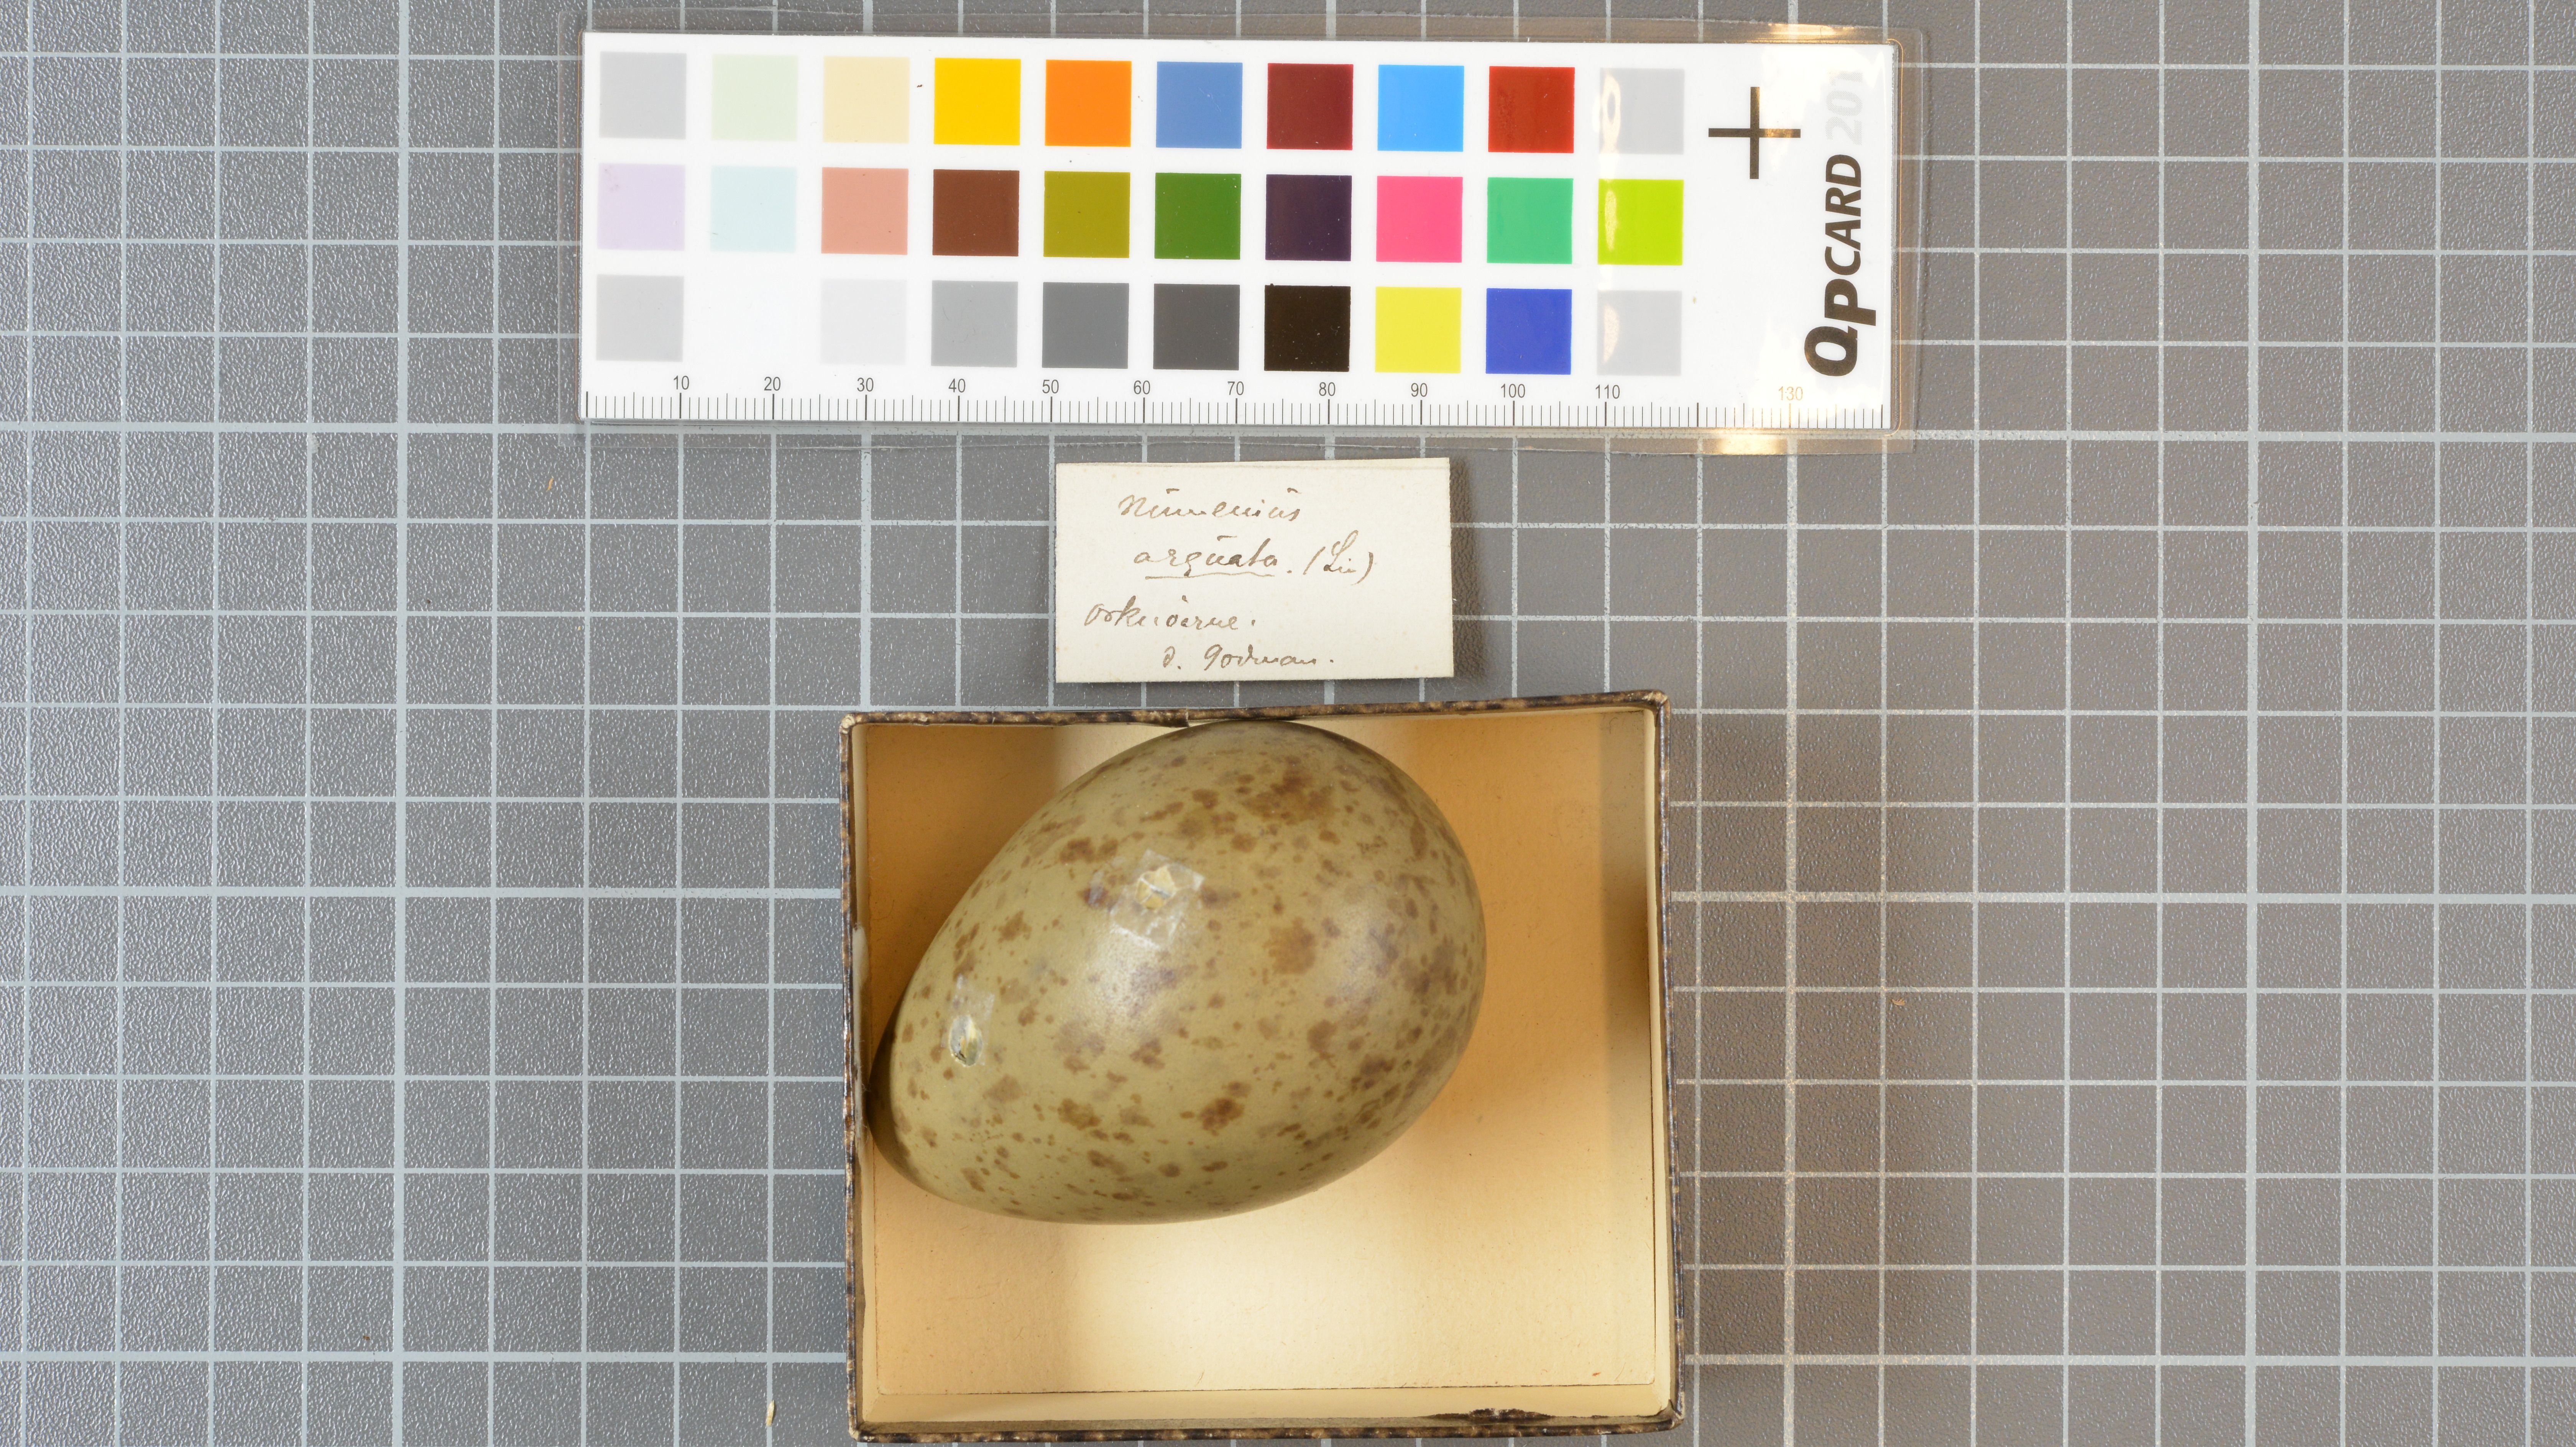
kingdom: Animalia
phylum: Chordata
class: Aves
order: Charadriiformes
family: Scolopacidae
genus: Numenius
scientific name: Numenius arquata
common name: Eurasian curlew
